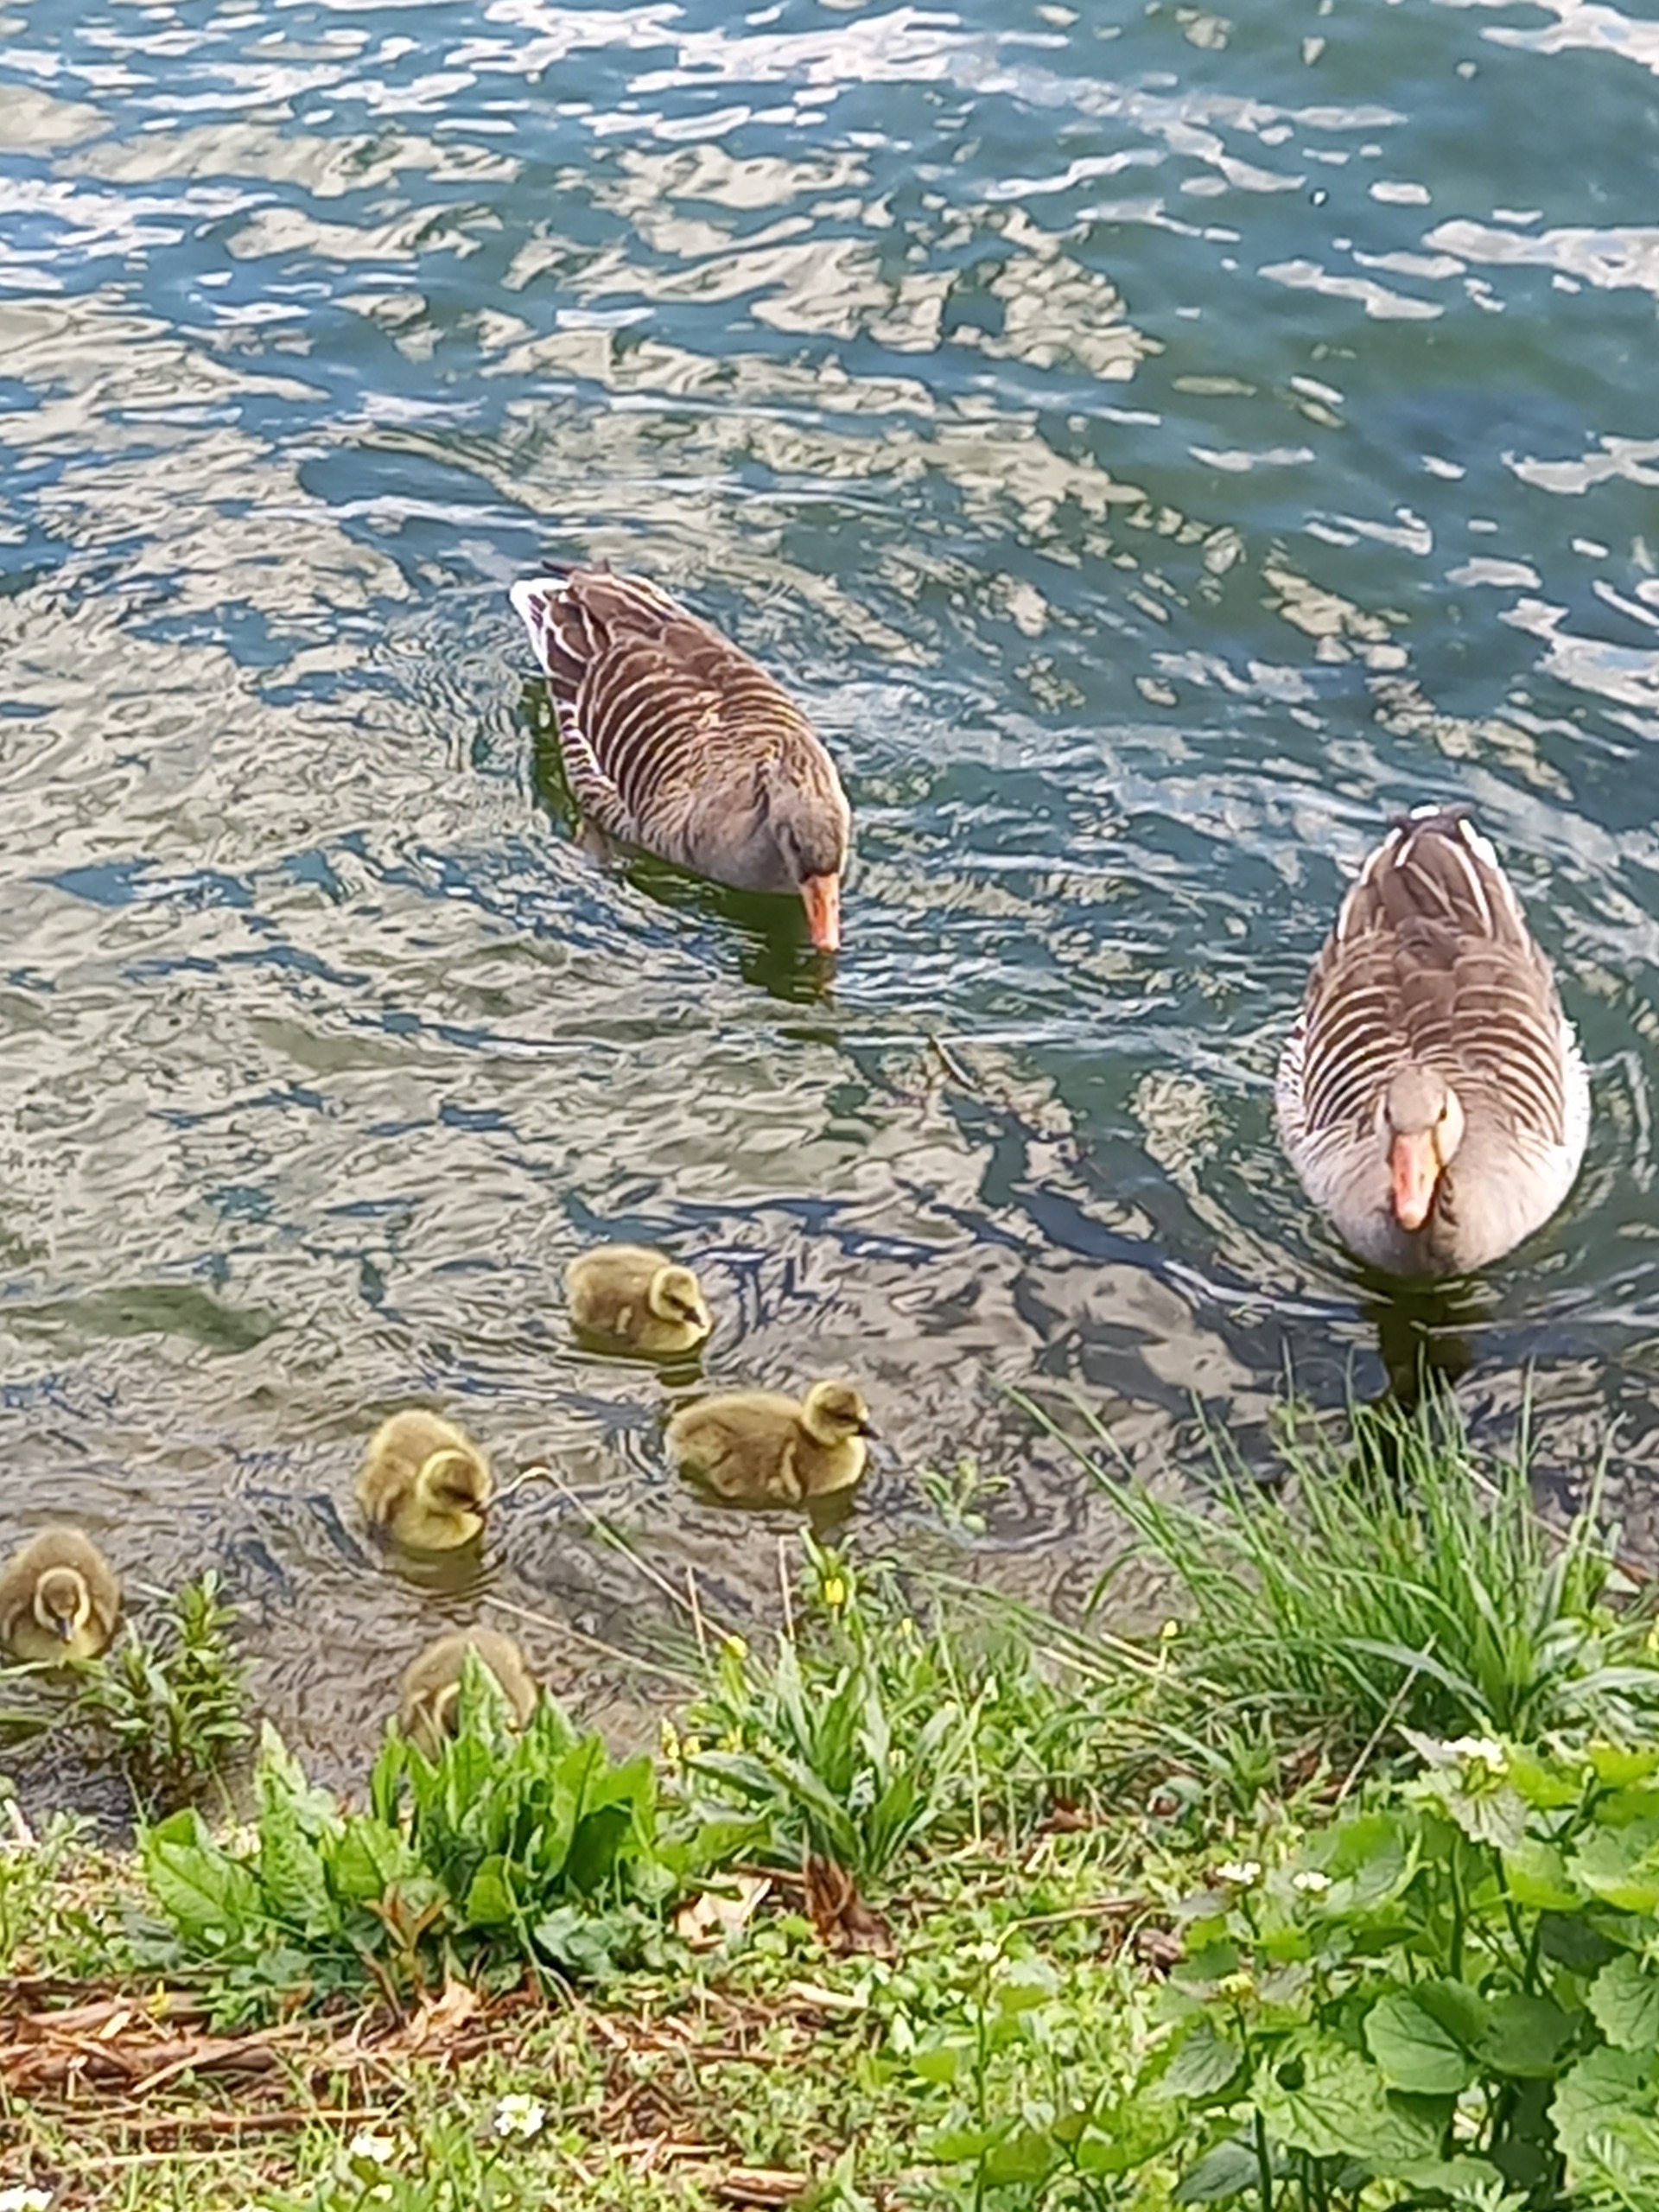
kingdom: Animalia
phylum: Chordata
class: Aves
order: Anseriformes
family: Anatidae
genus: Anser
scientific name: Anser anser
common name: Grågås
